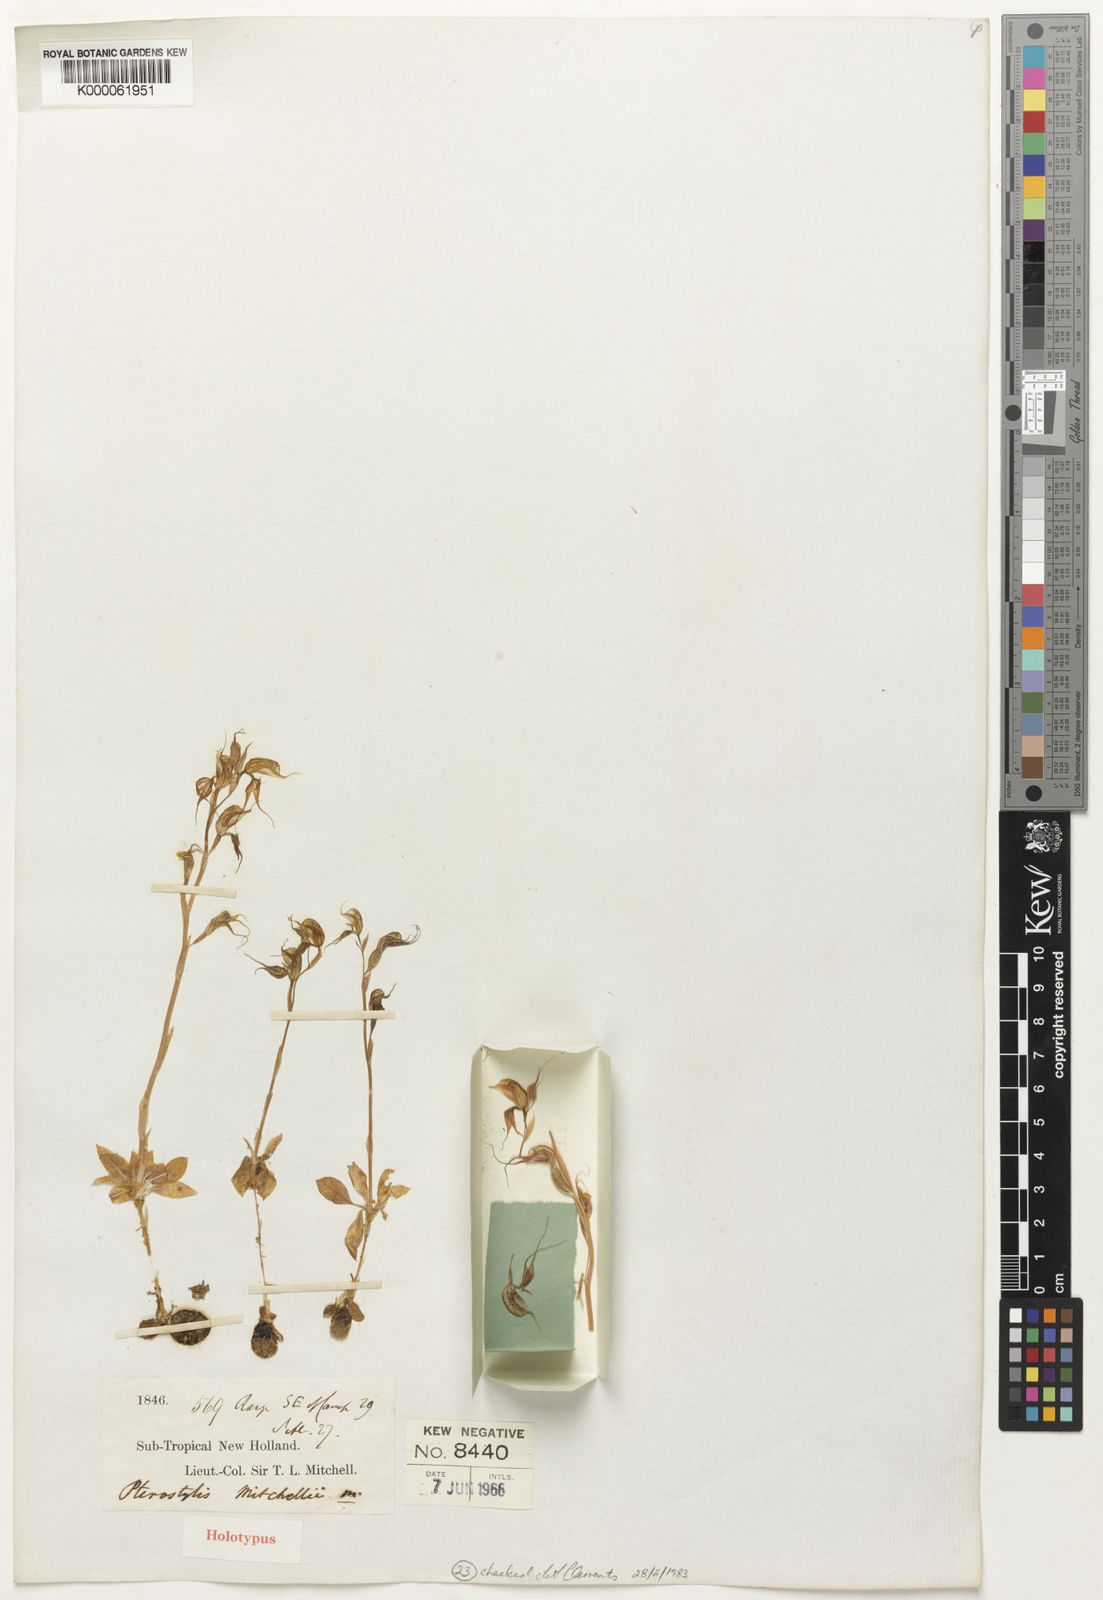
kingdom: Plantae
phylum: Tracheophyta
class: Liliopsida
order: Asparagales
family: Orchidaceae
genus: Pterostylis
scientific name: Pterostylis mitchellii
